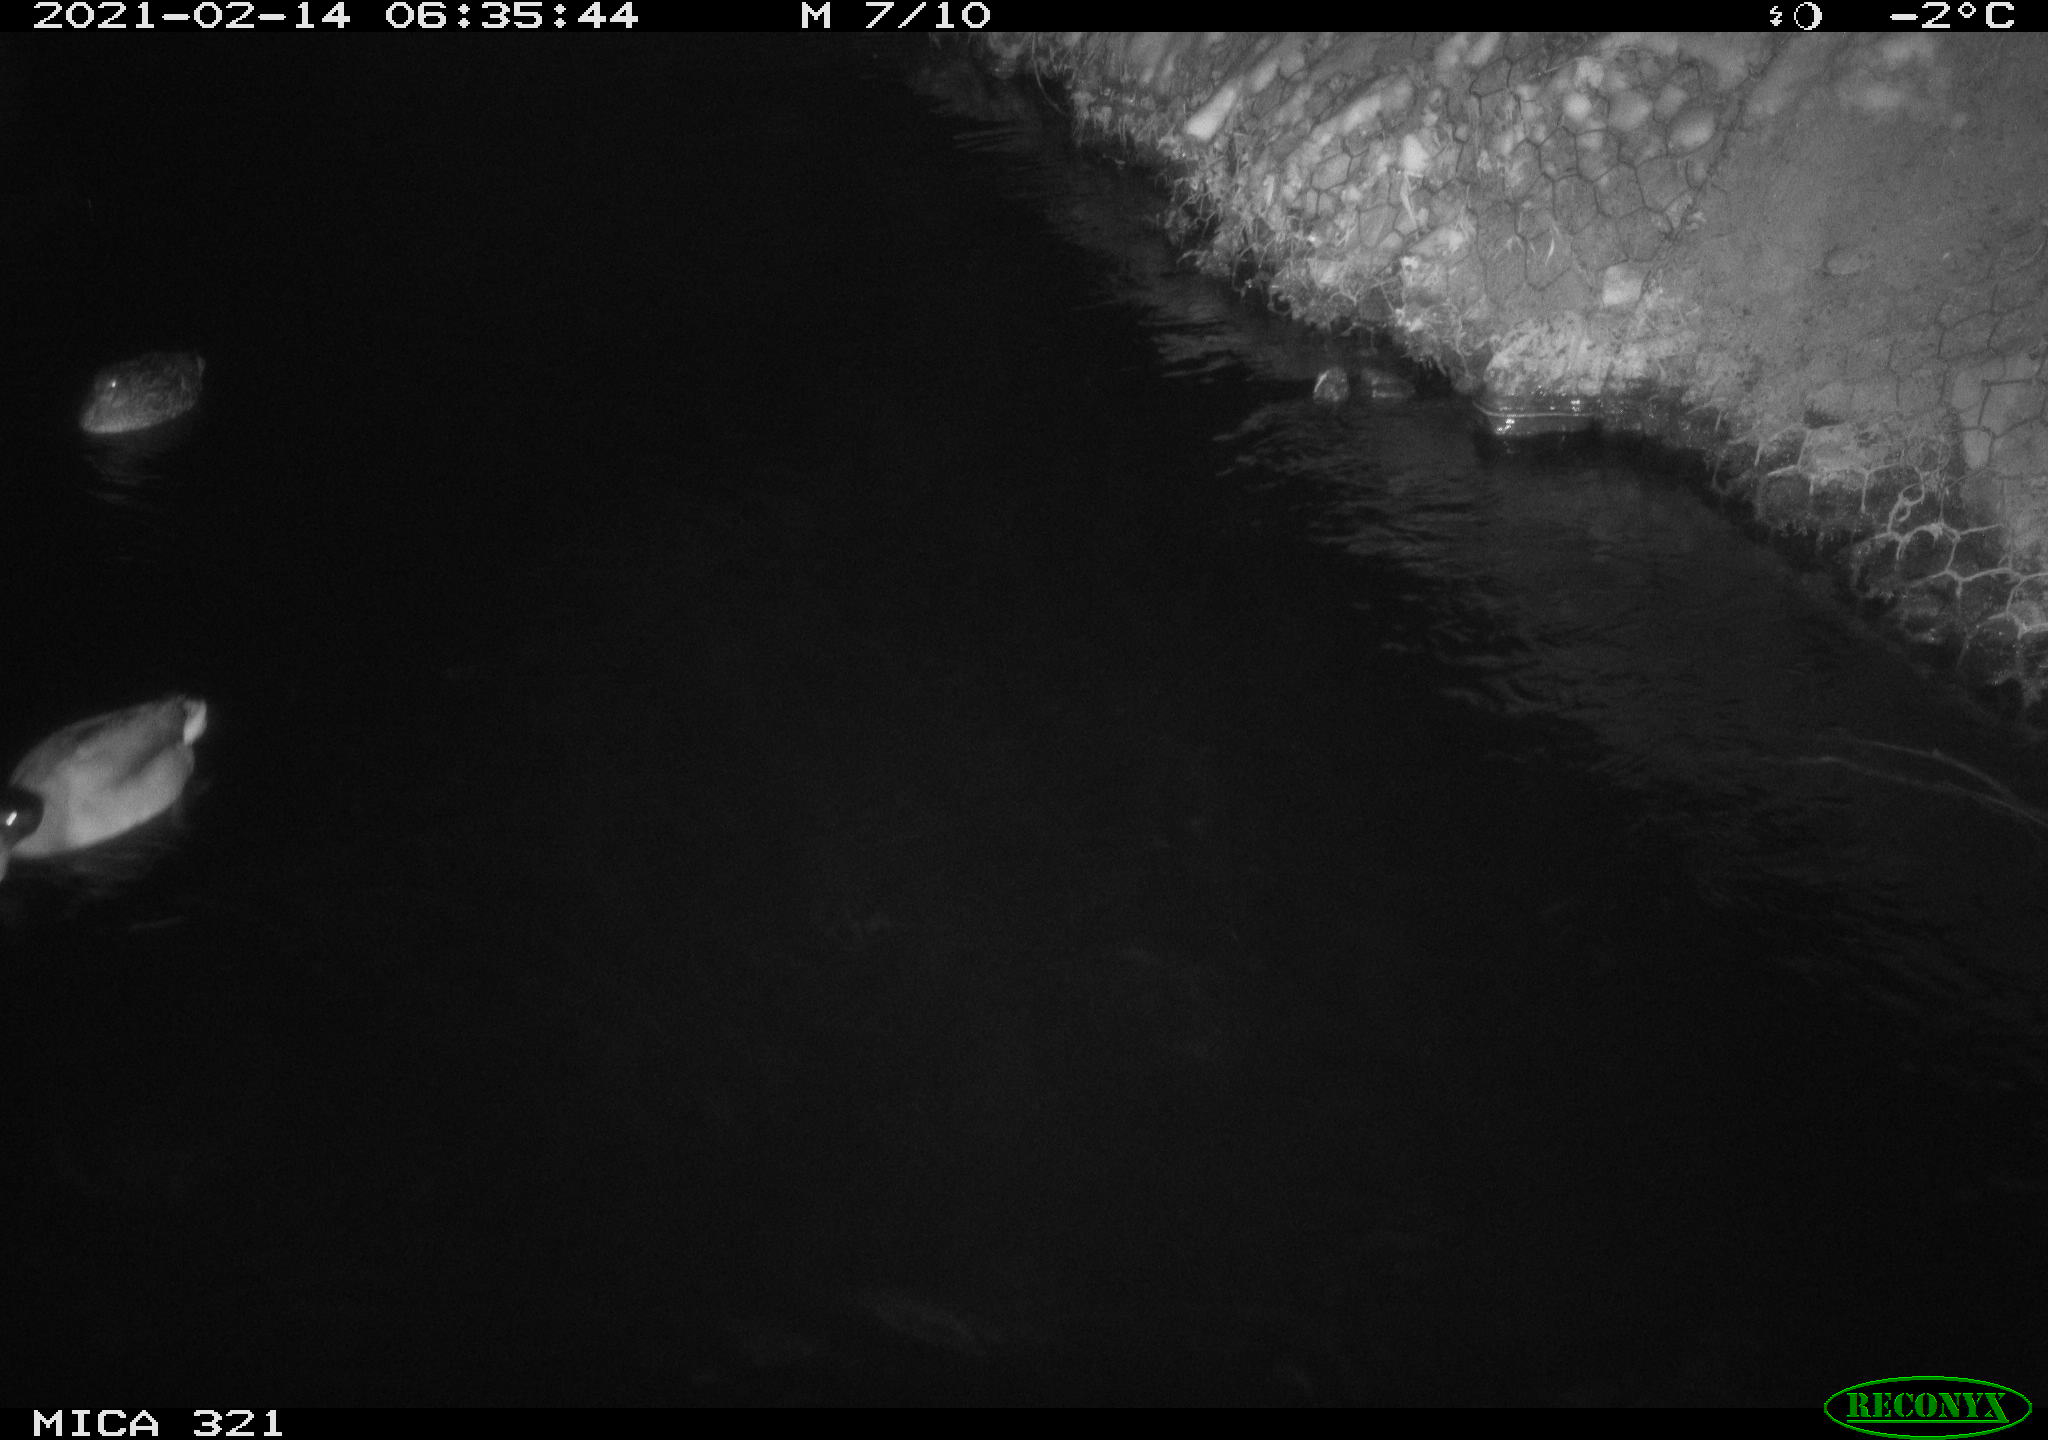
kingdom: Animalia
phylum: Chordata
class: Aves
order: Anseriformes
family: Anatidae
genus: Anas
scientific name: Anas platyrhynchos
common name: Mallard
